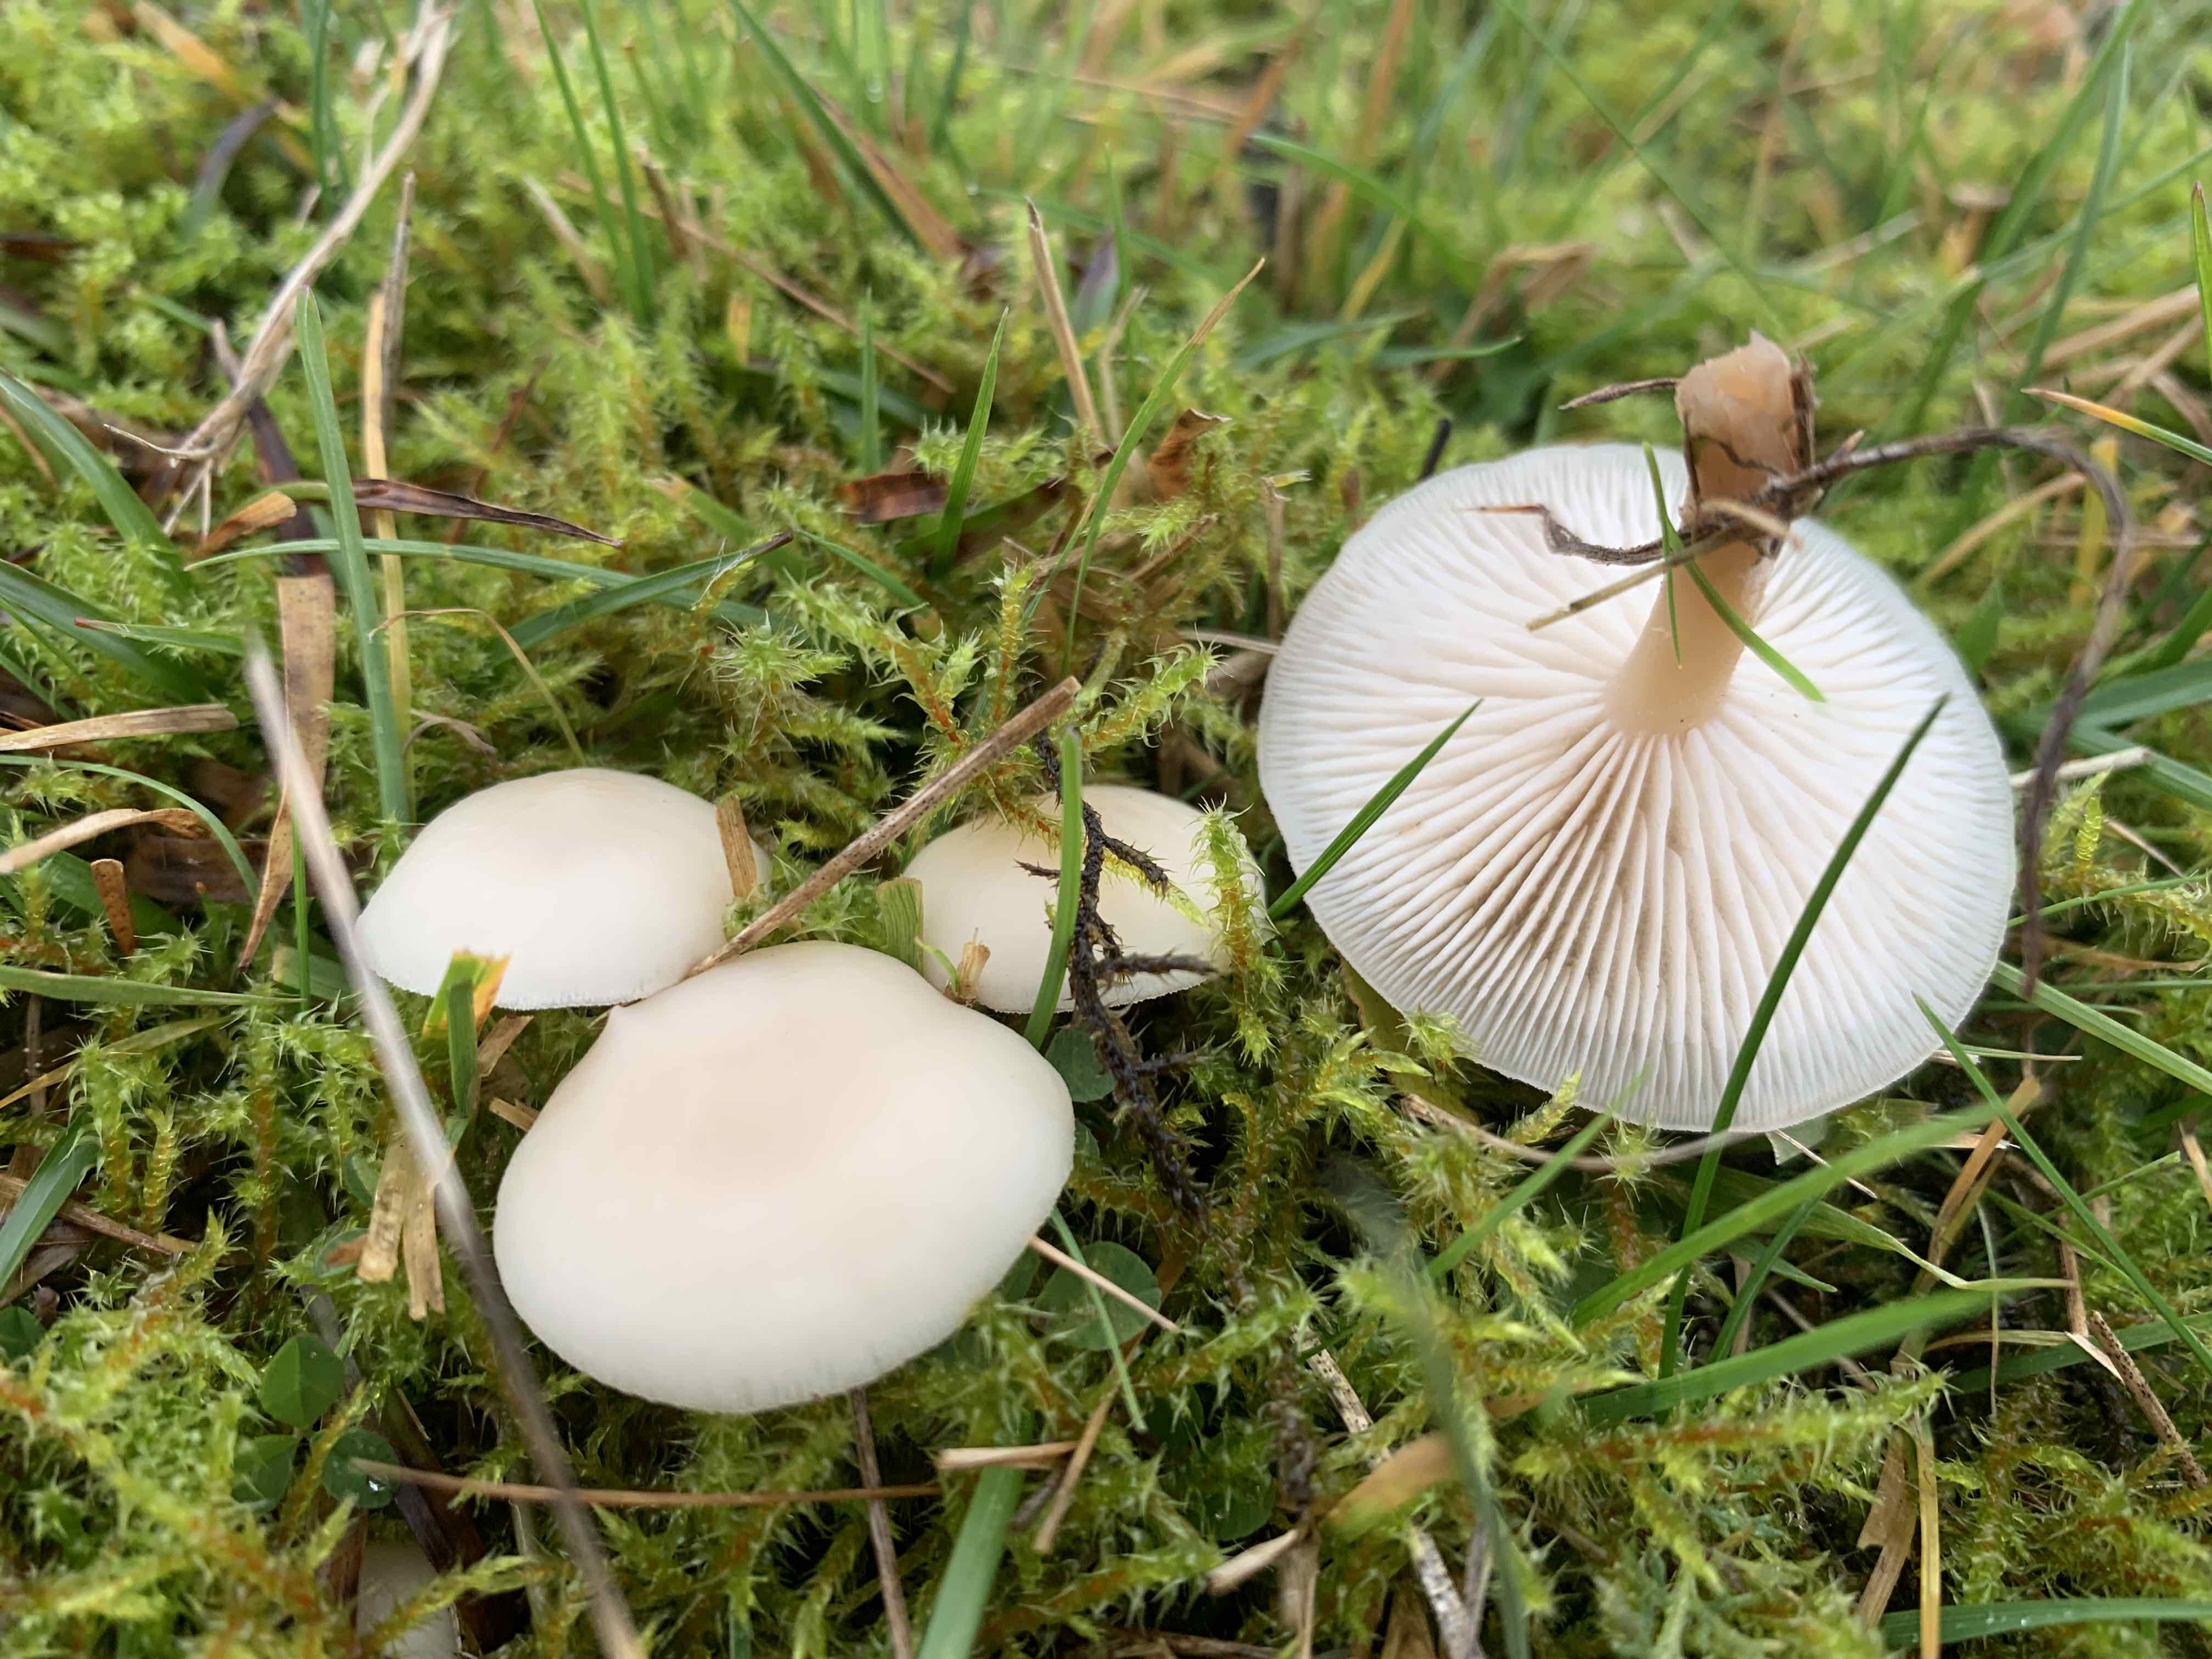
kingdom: Fungi
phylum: Basidiomycota
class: Agaricomycetes
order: Agaricales
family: Tricholomataceae
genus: Clitocybe
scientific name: Clitocybe agrestis
